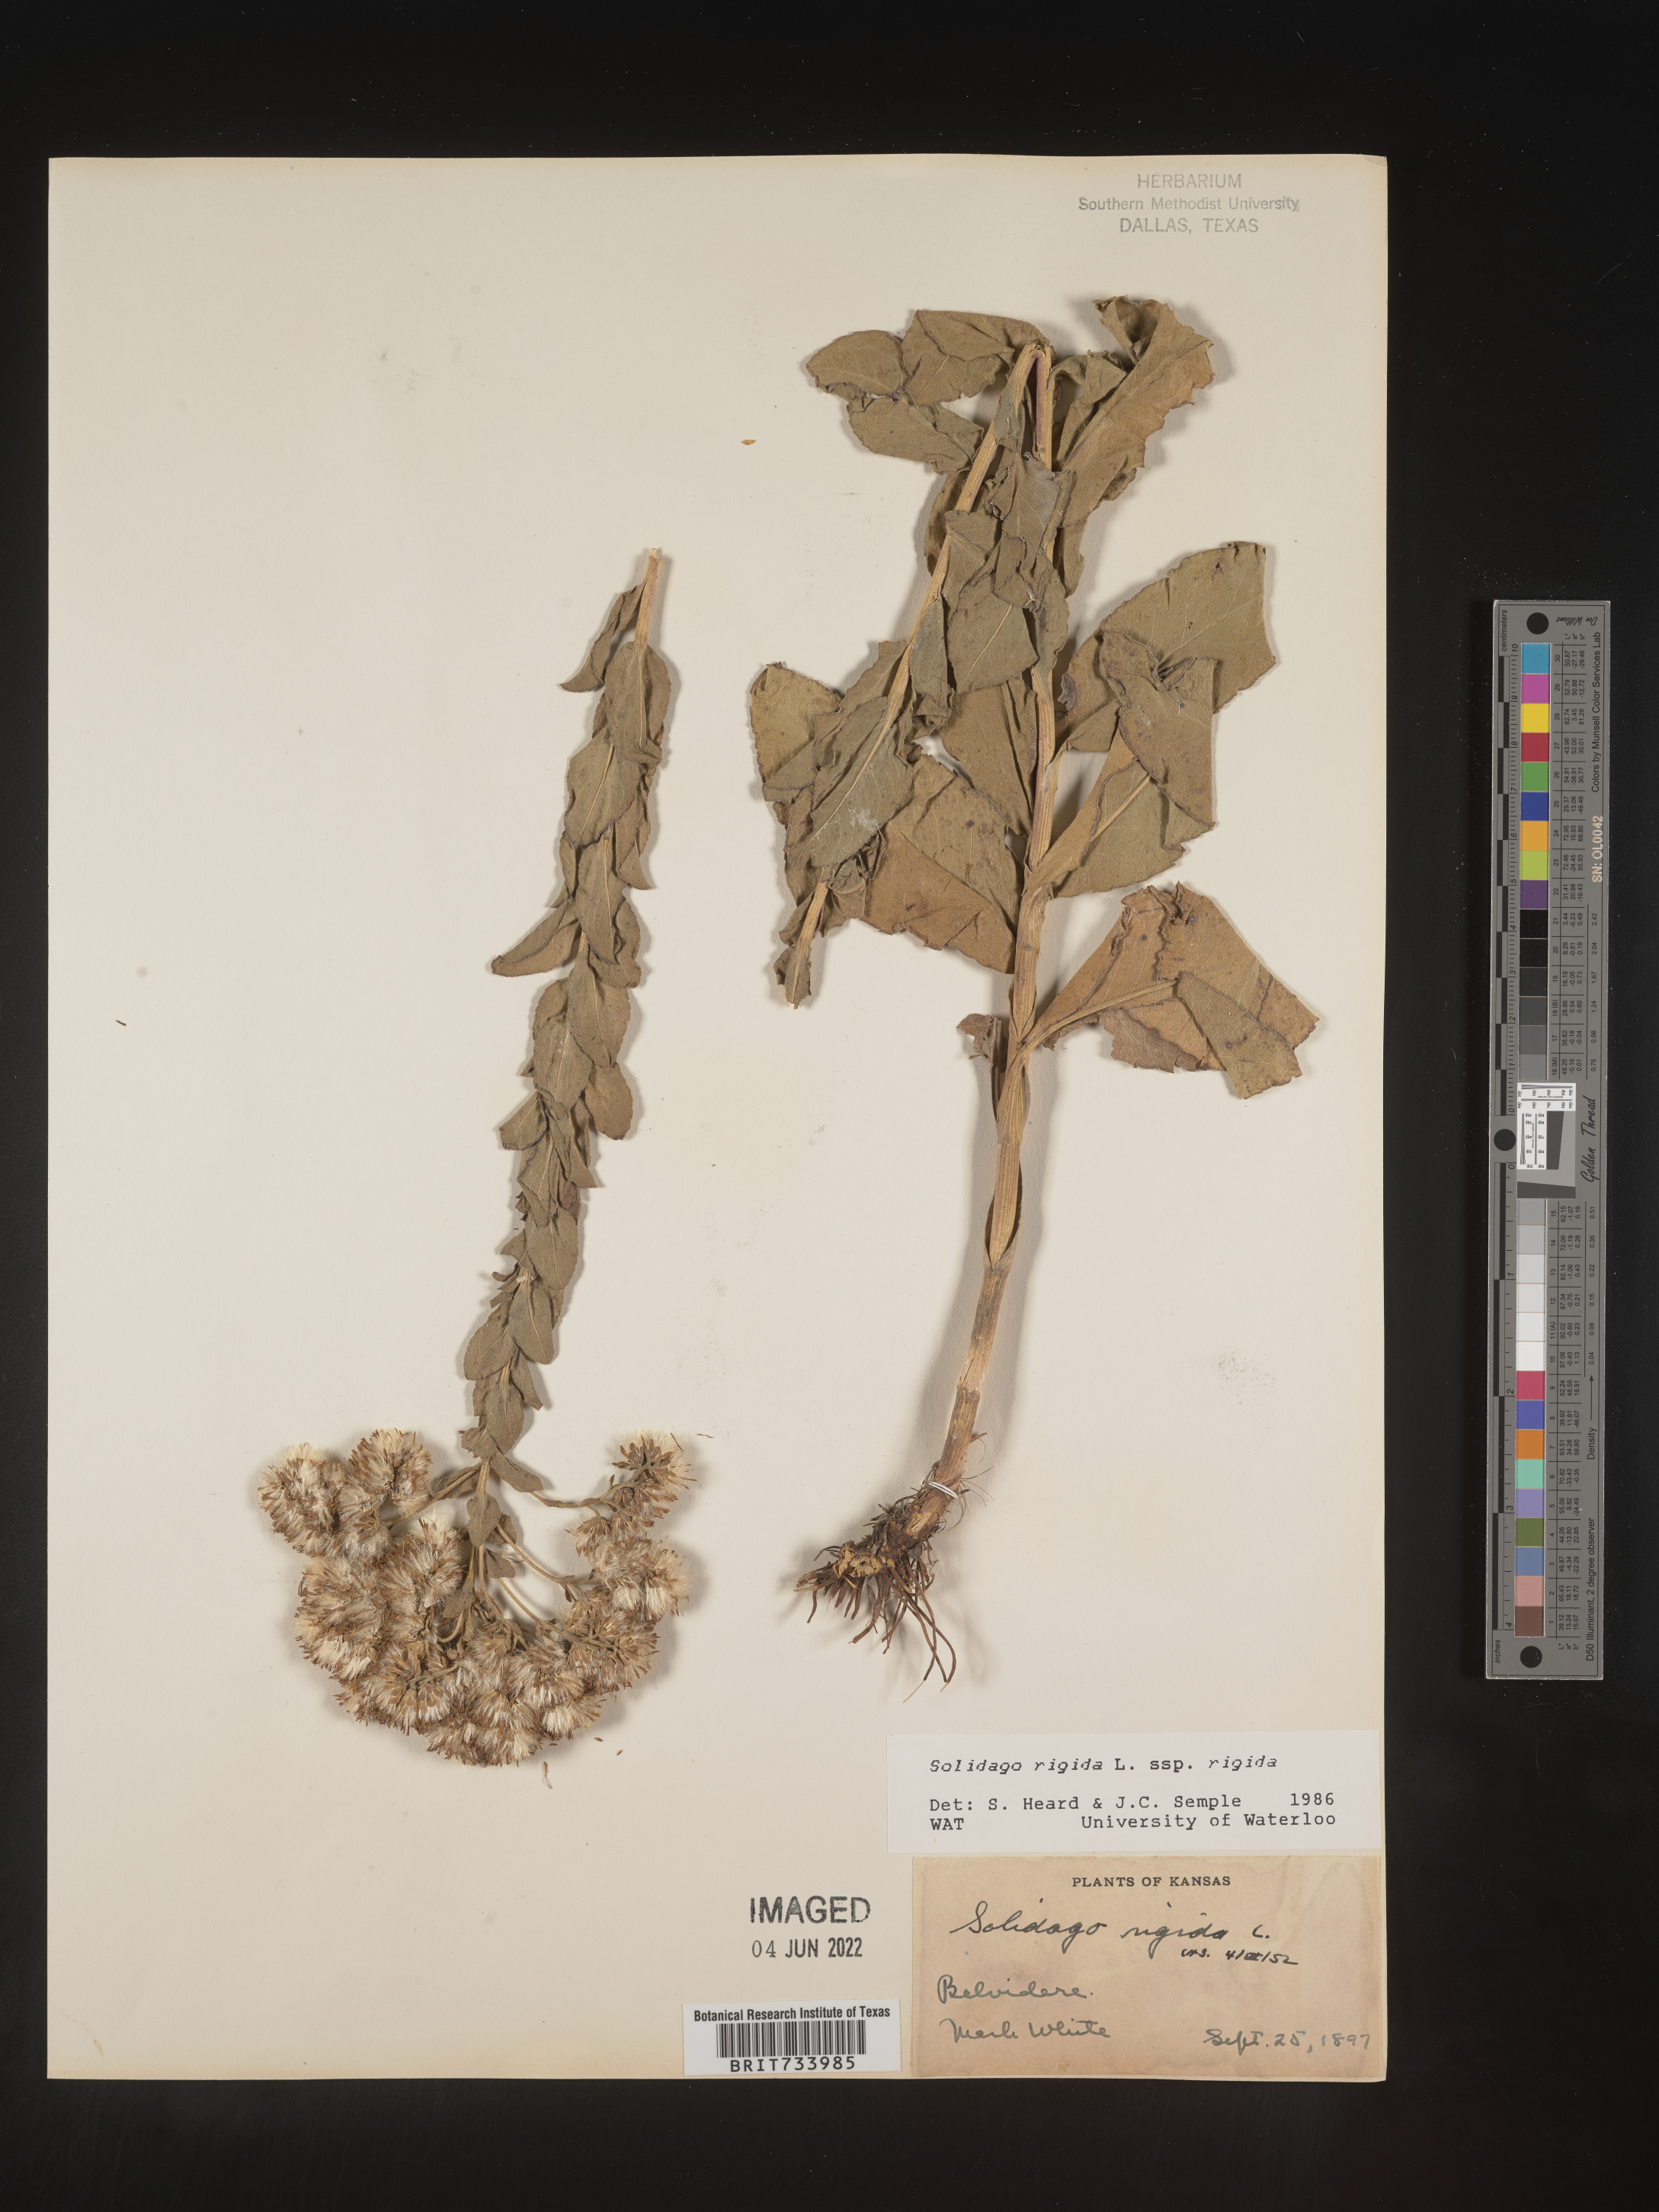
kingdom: Plantae
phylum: Tracheophyta
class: Magnoliopsida
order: Asterales
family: Asteraceae
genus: Solidago
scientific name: Solidago rigida
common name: Rigid goldenrod
